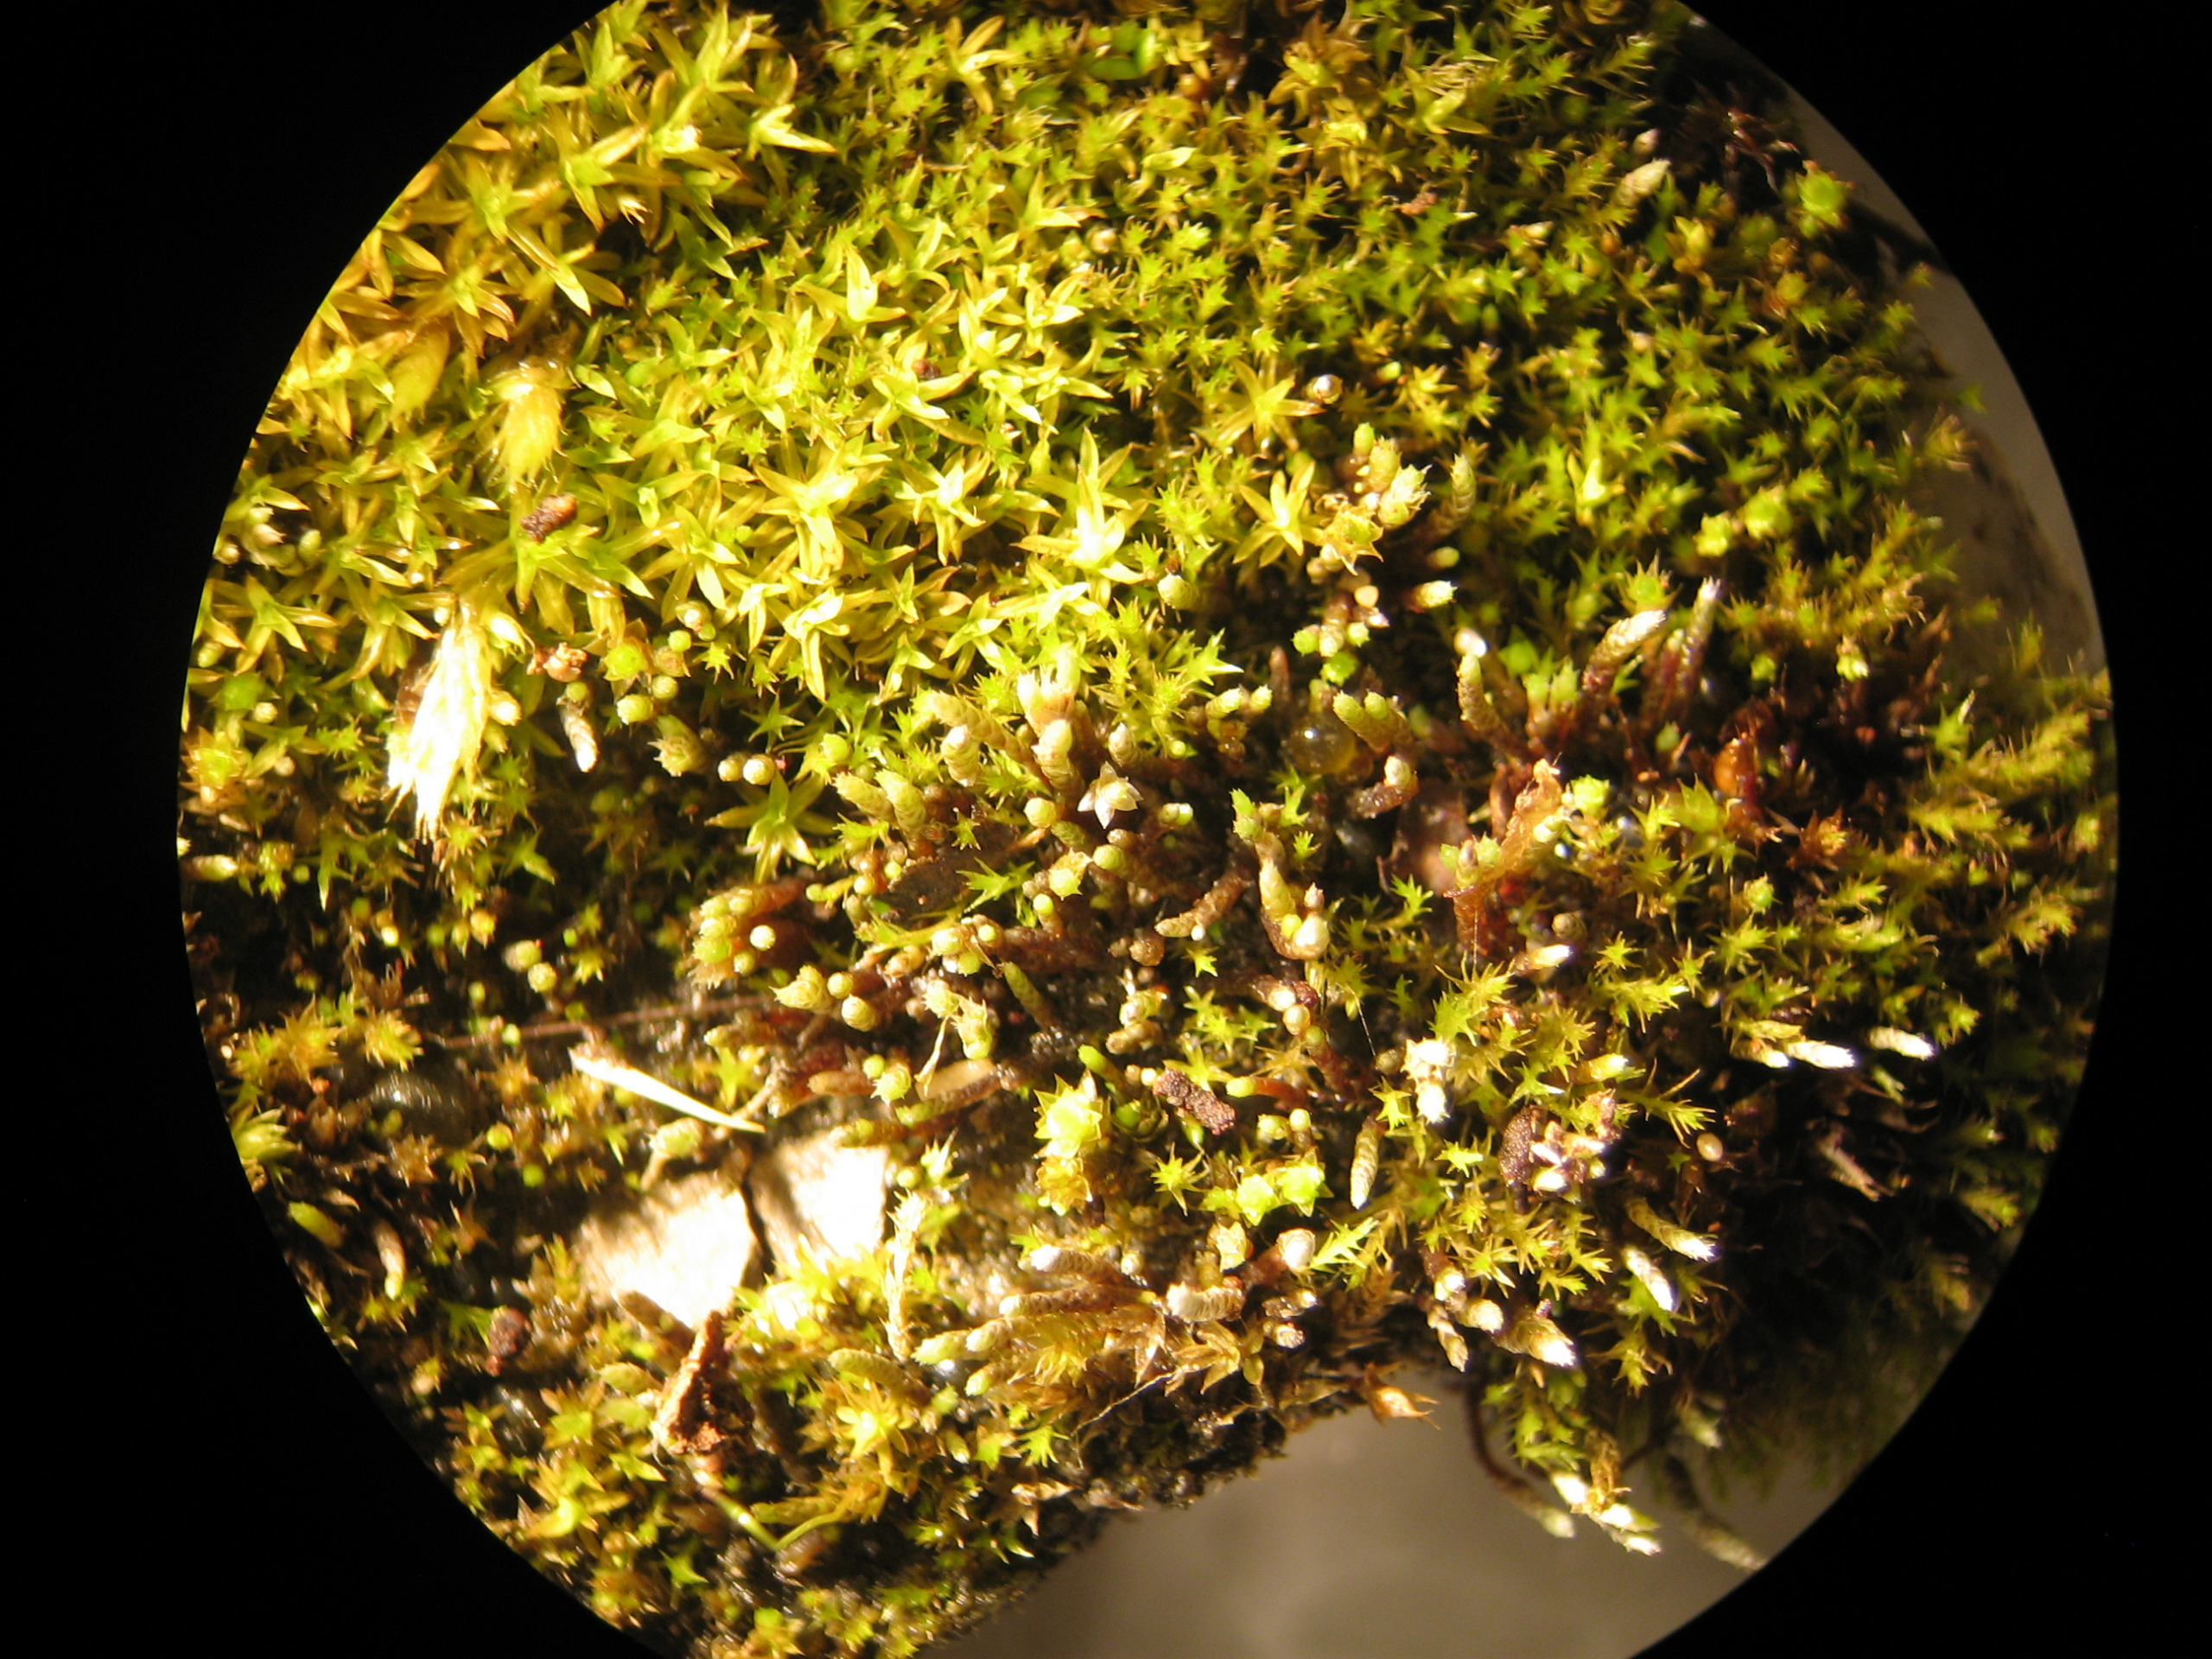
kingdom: Plantae
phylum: Bryophyta
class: Bryopsida
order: Bryales
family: Bryaceae
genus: Bryum
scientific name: Bryum argenteum
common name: Sølv-bryum
